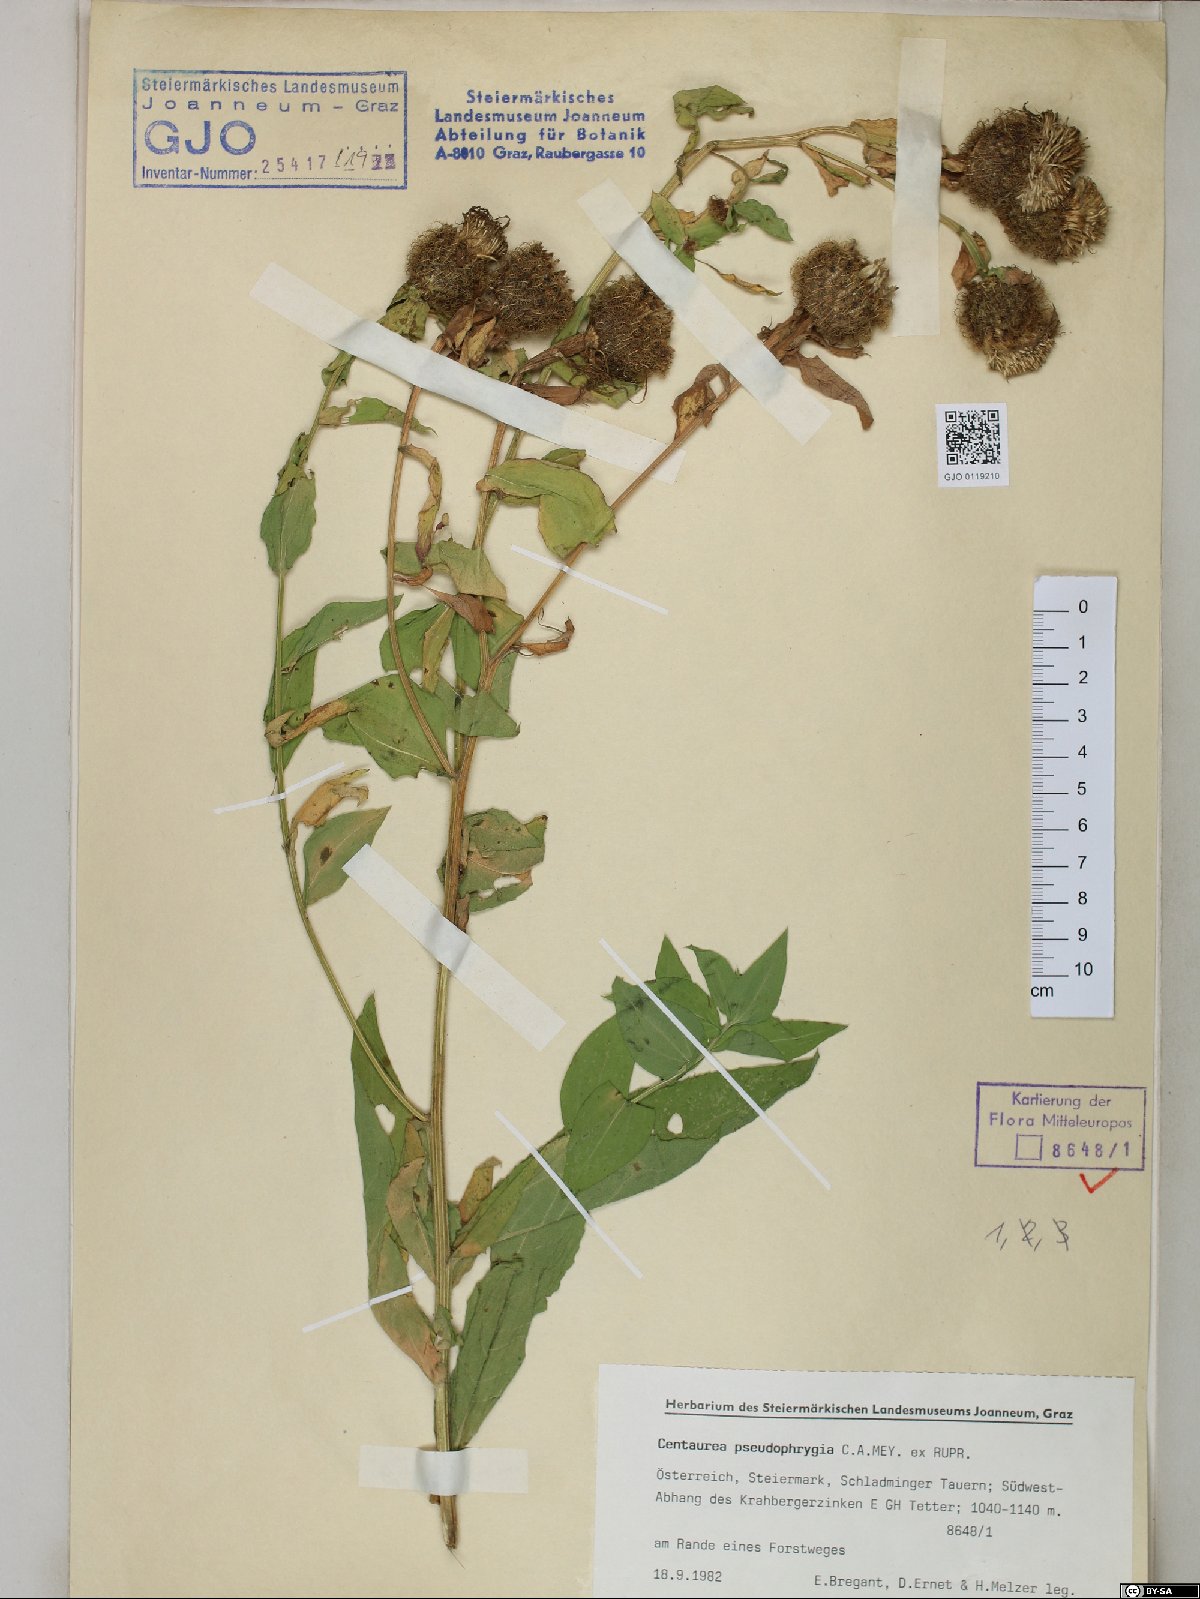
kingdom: Plantae
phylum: Tracheophyta
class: Magnoliopsida
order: Asterales
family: Asteraceae
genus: Centaurea
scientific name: Centaurea pseudophrygia
